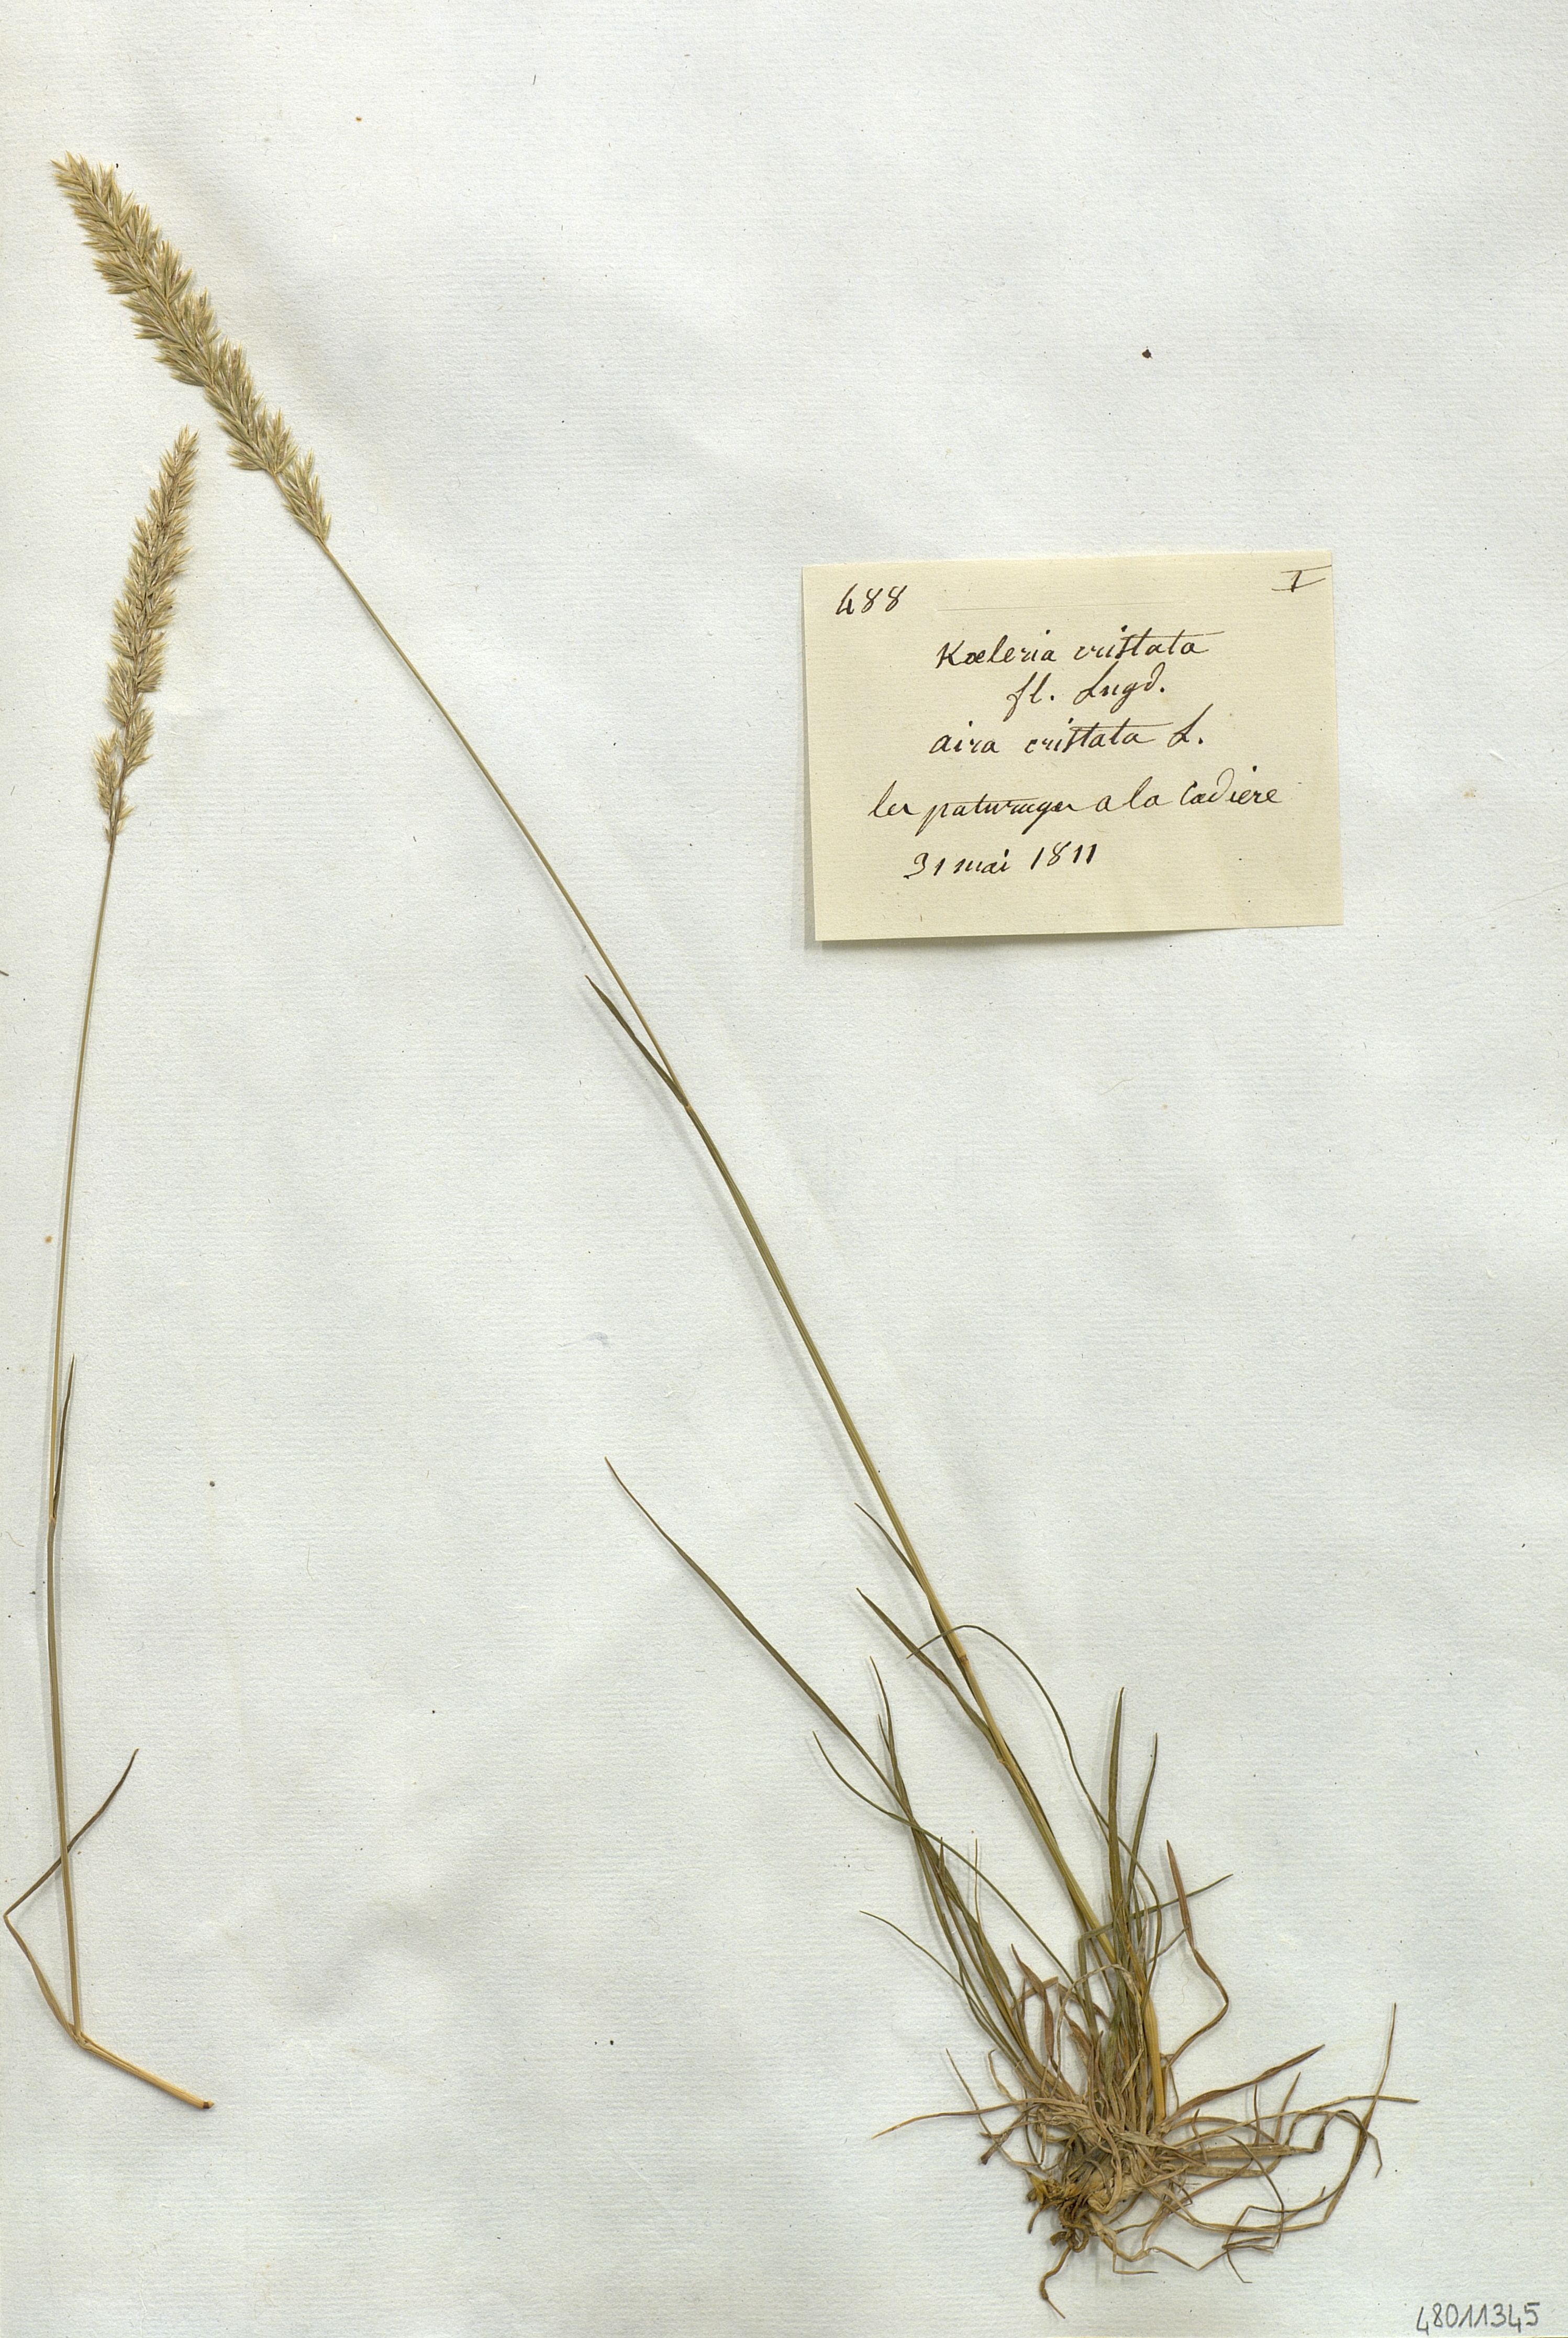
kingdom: Plantae
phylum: Tracheophyta
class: Liliopsida
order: Poales
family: Poaceae
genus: Koeleria
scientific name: Koeleria cristata
